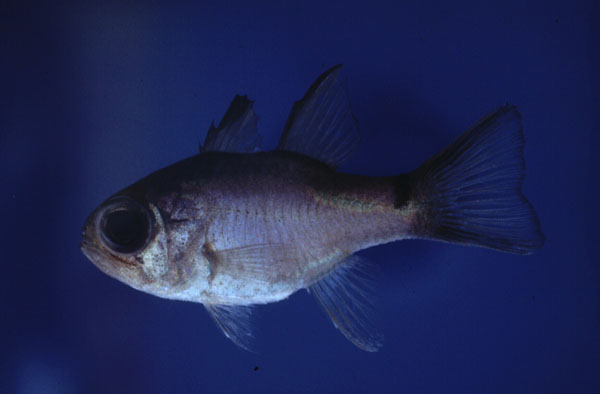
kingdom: Animalia
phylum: Chordata
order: Perciformes
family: Apogonidae
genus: Nectamia
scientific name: Nectamia savayensis
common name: Samoan cardinalfish
